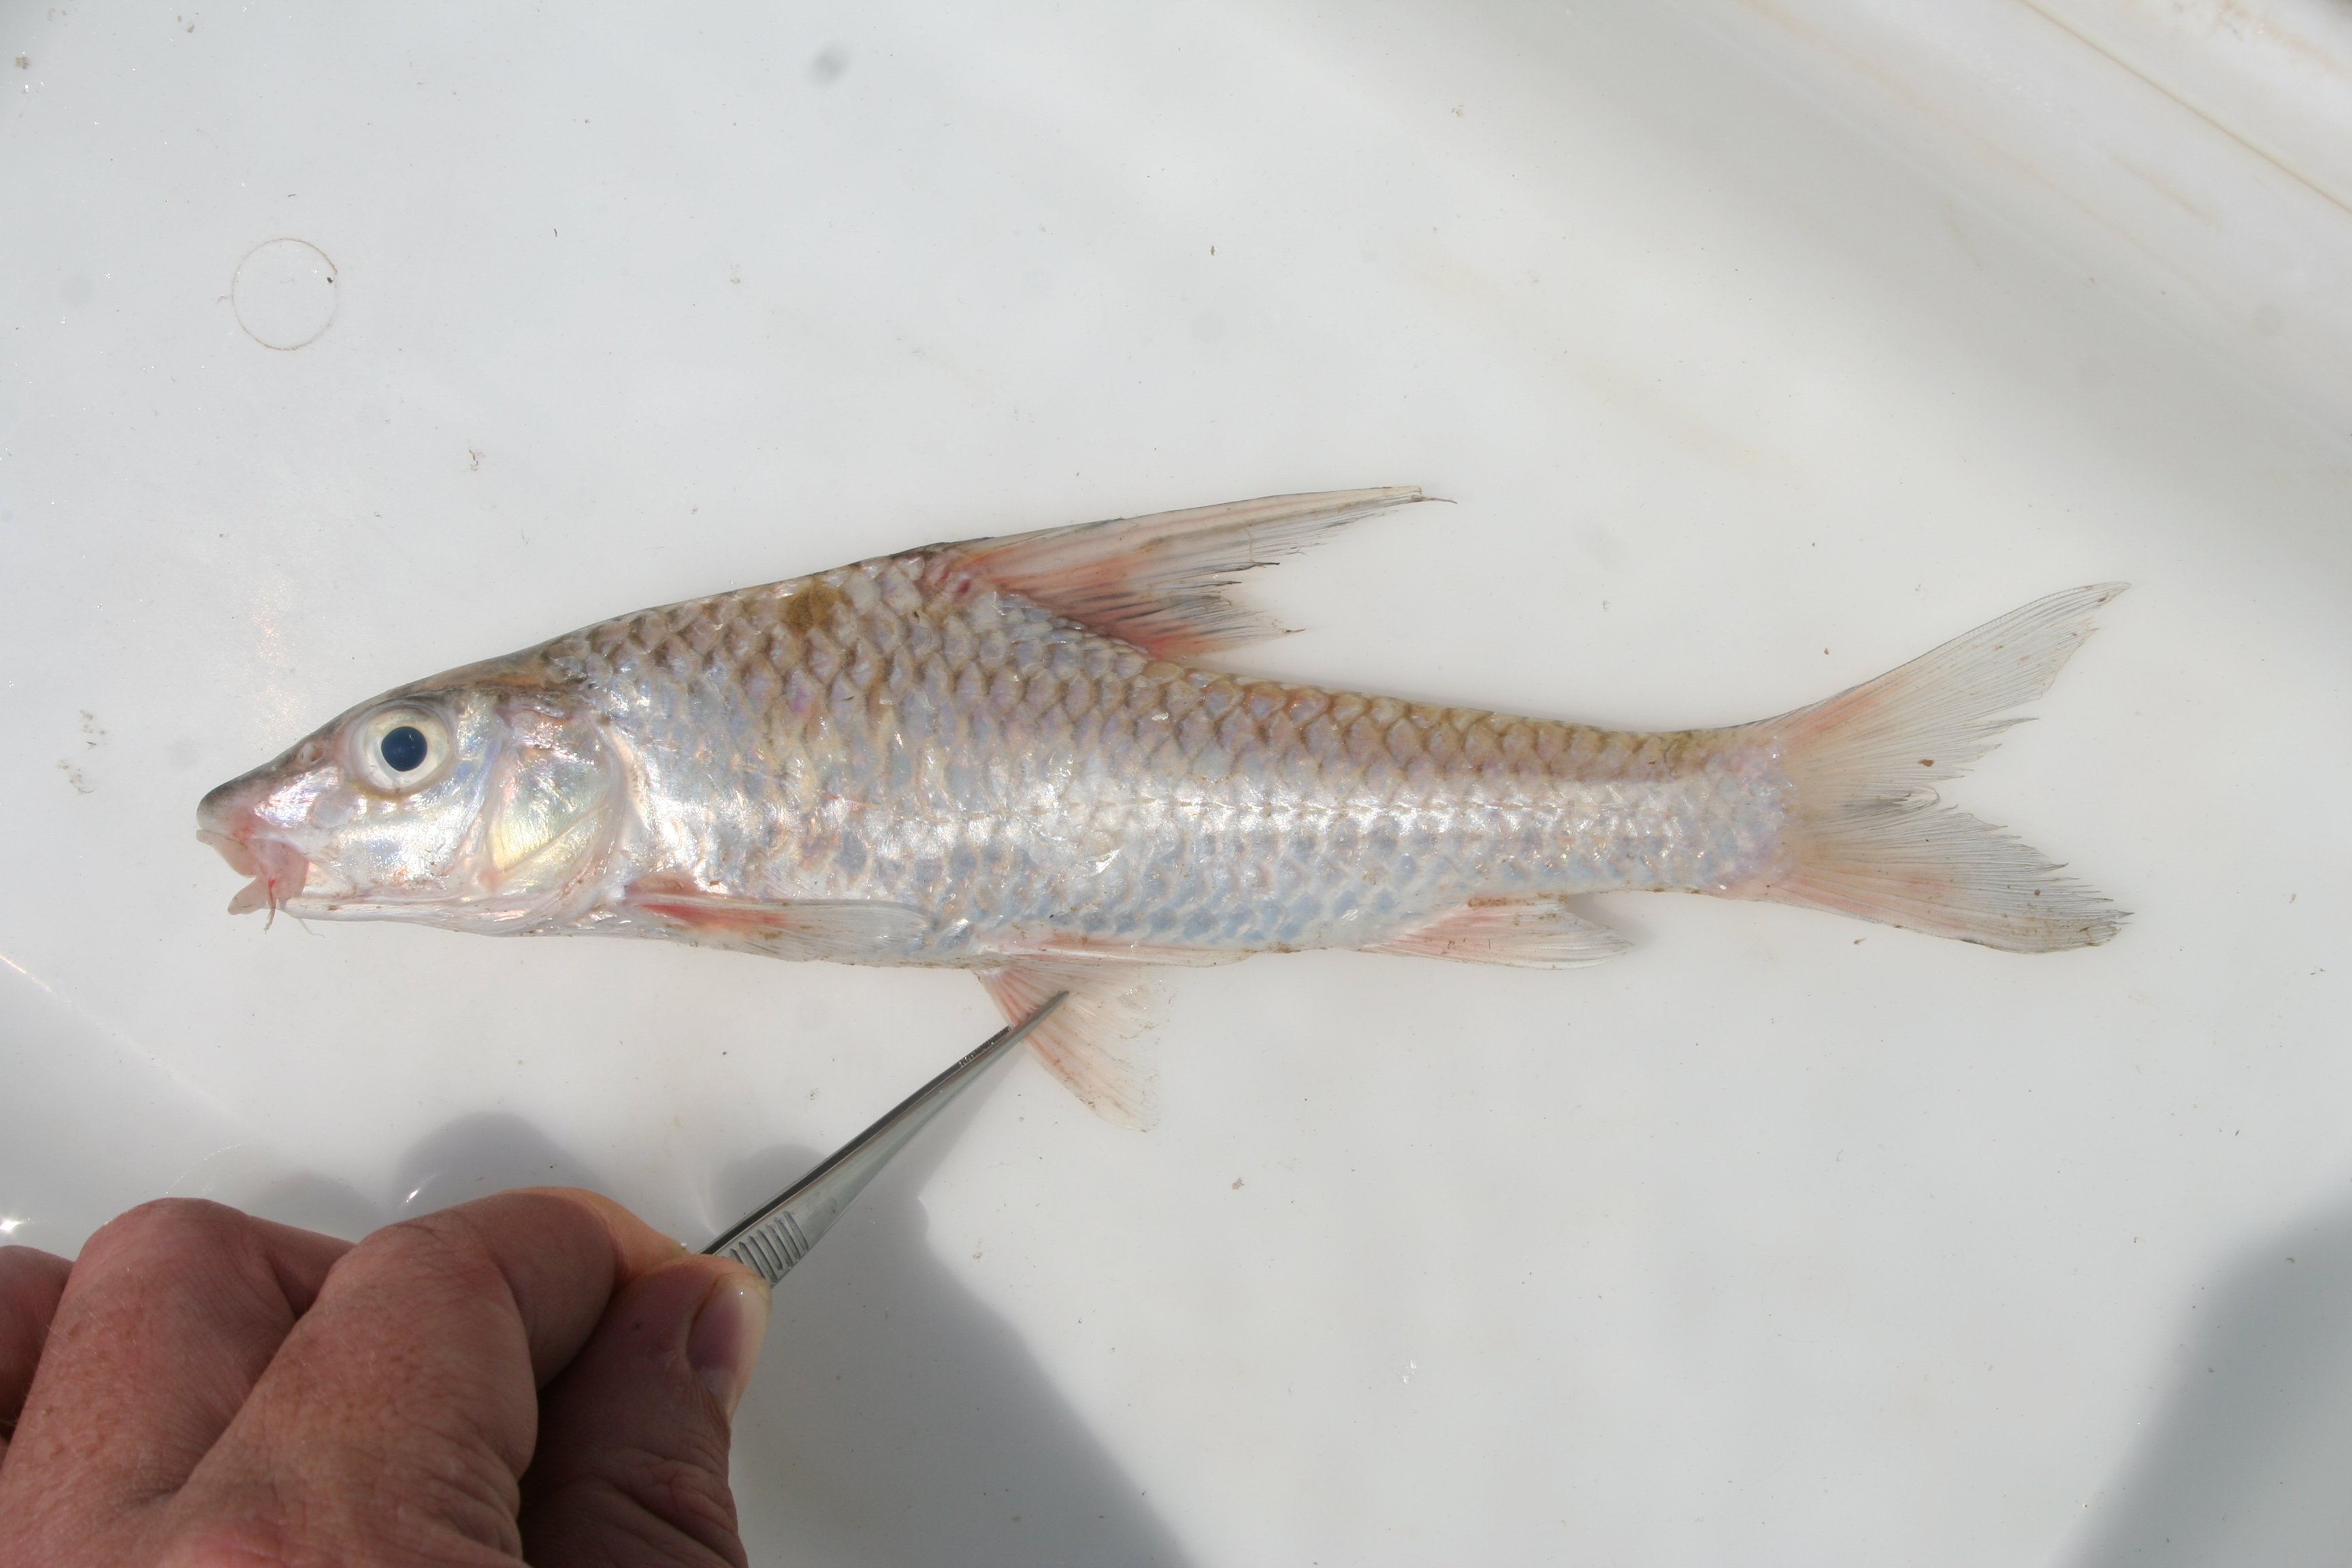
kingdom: Animalia
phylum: Chordata
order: Cypriniformes
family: Cyprinidae
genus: Labeobarbus
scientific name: Labeobarbus
